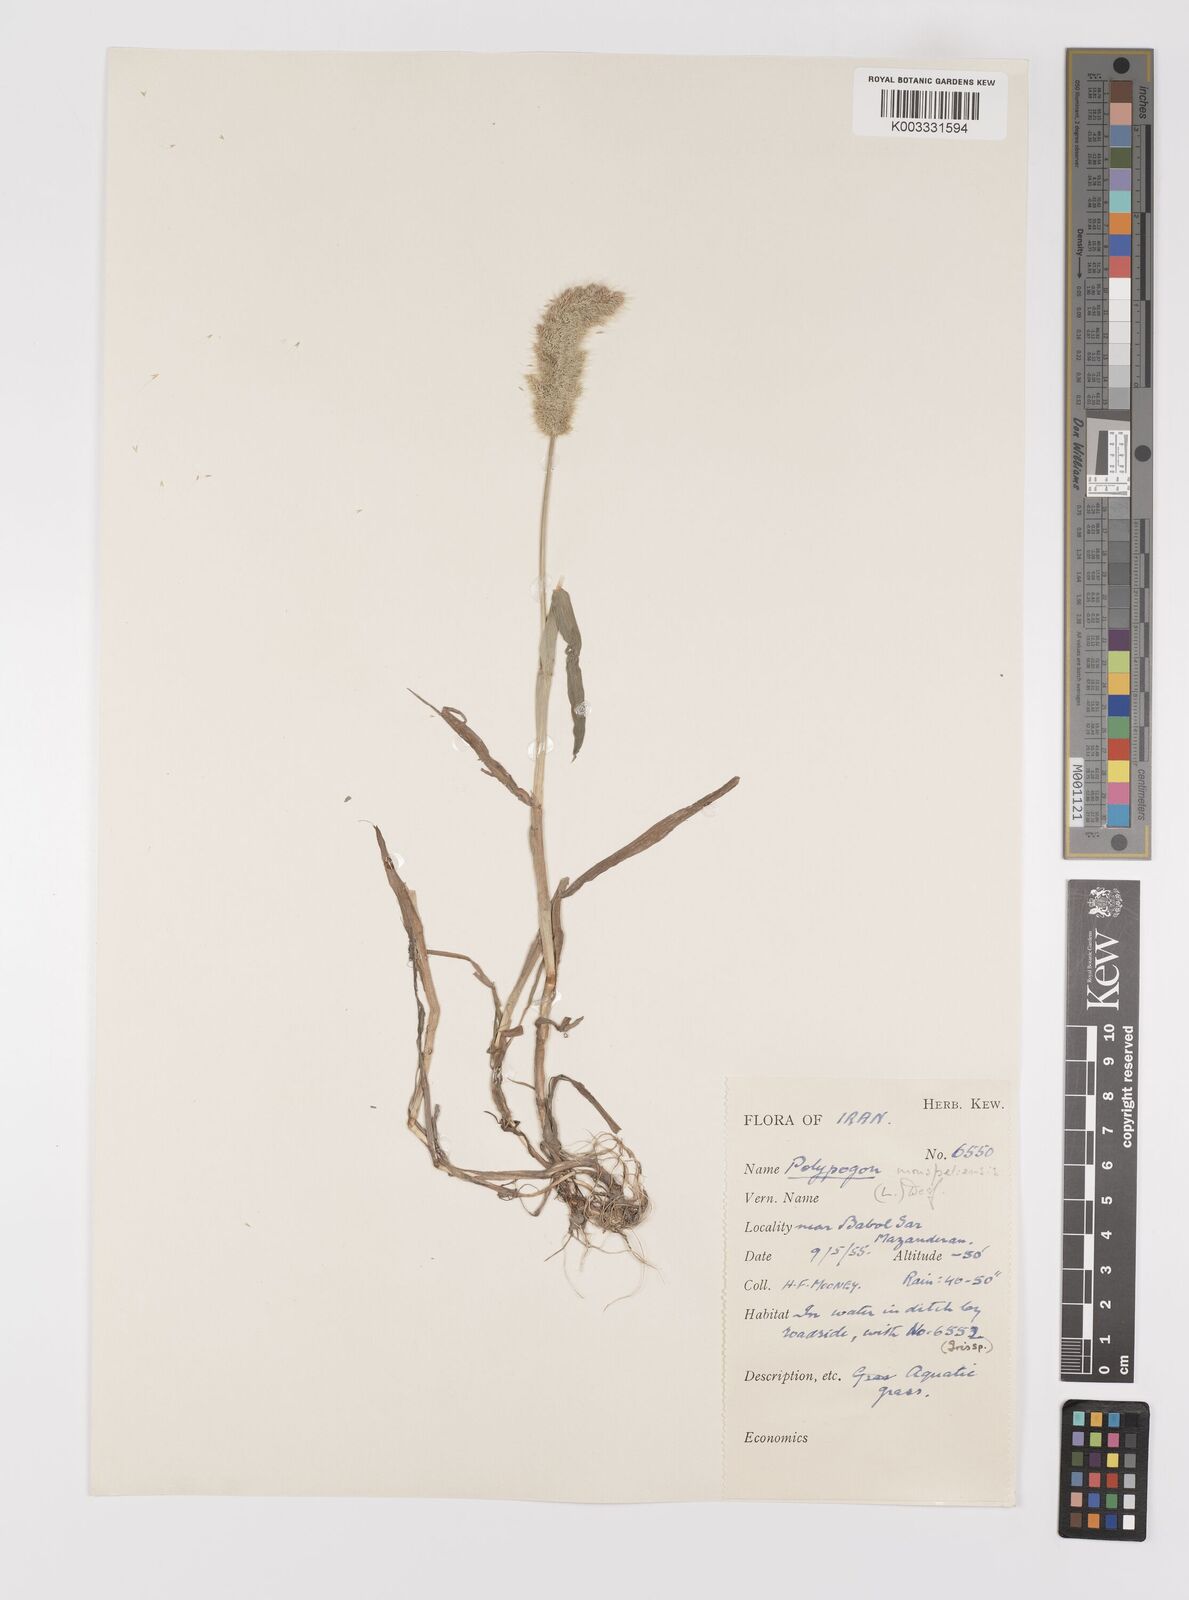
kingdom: Plantae
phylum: Tracheophyta
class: Liliopsida
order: Poales
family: Poaceae
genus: Polypogon
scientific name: Polypogon monspeliensis
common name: Annual rabbitsfoot grass
